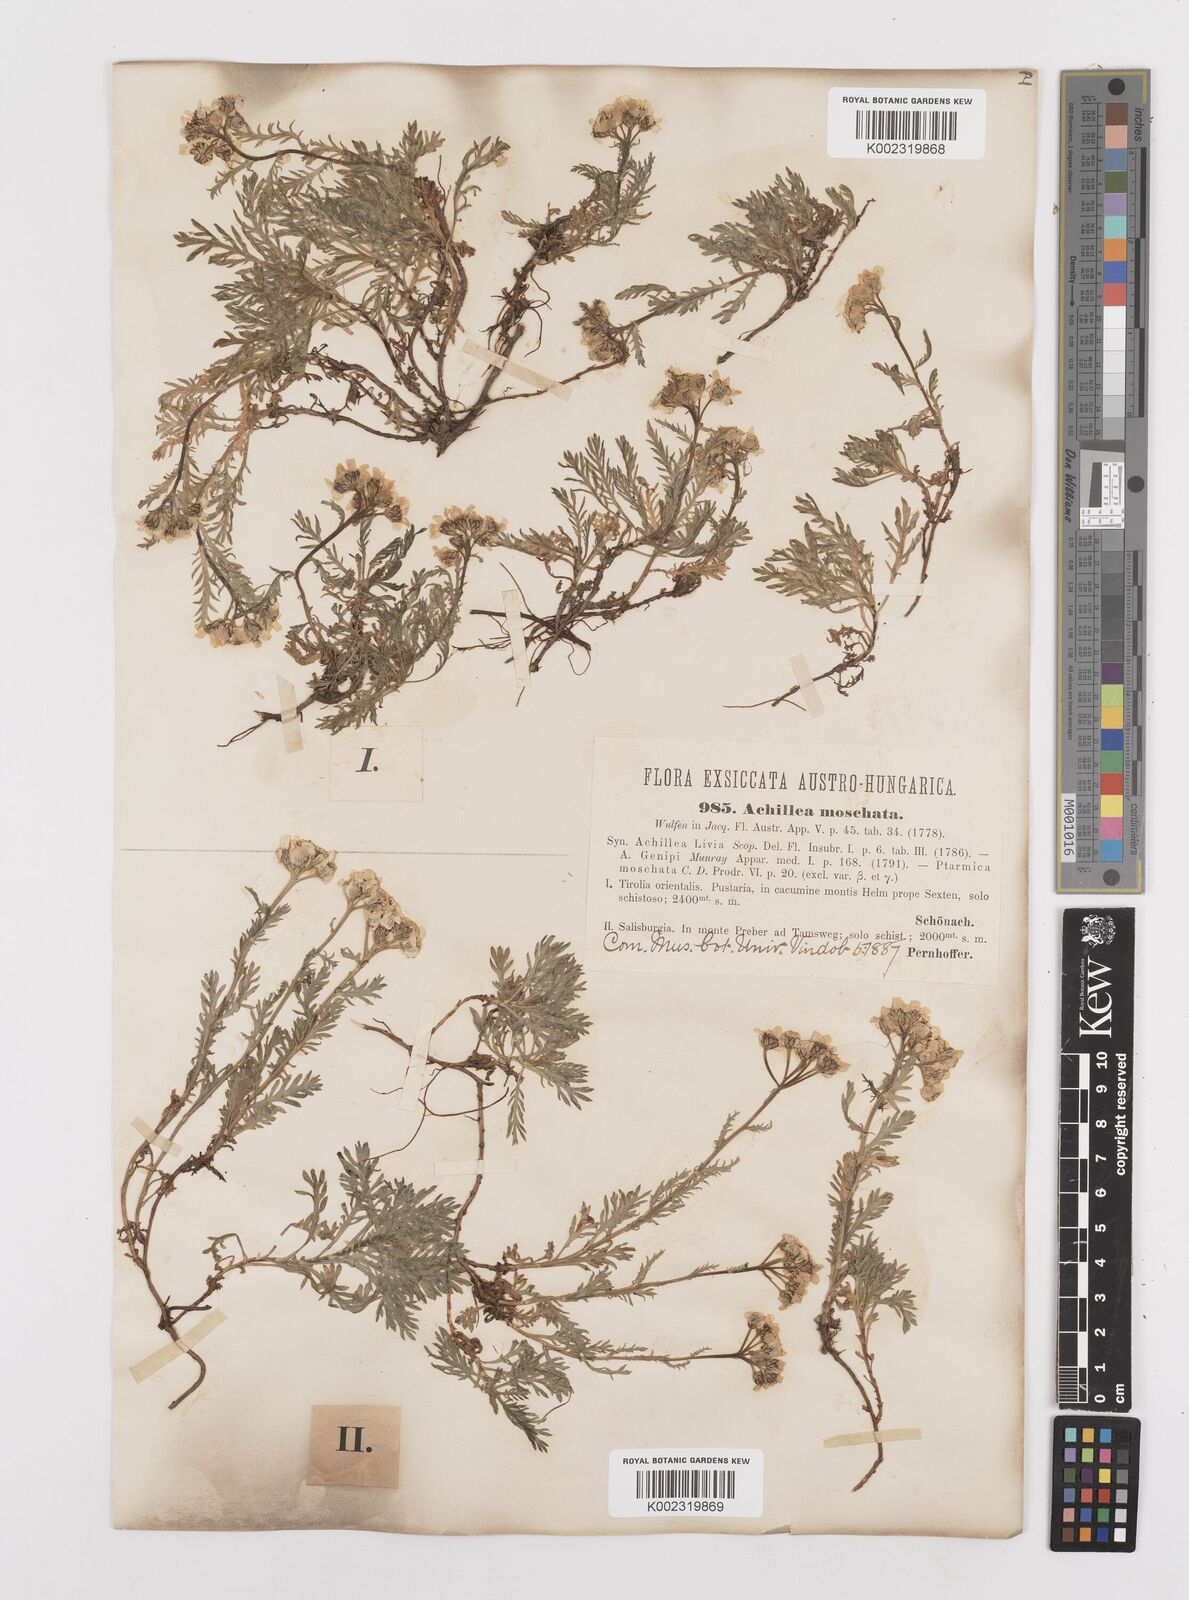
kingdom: Plantae
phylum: Tracheophyta
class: Magnoliopsida
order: Asterales
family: Asteraceae
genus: Achillea
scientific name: Achillea erba-rotta
